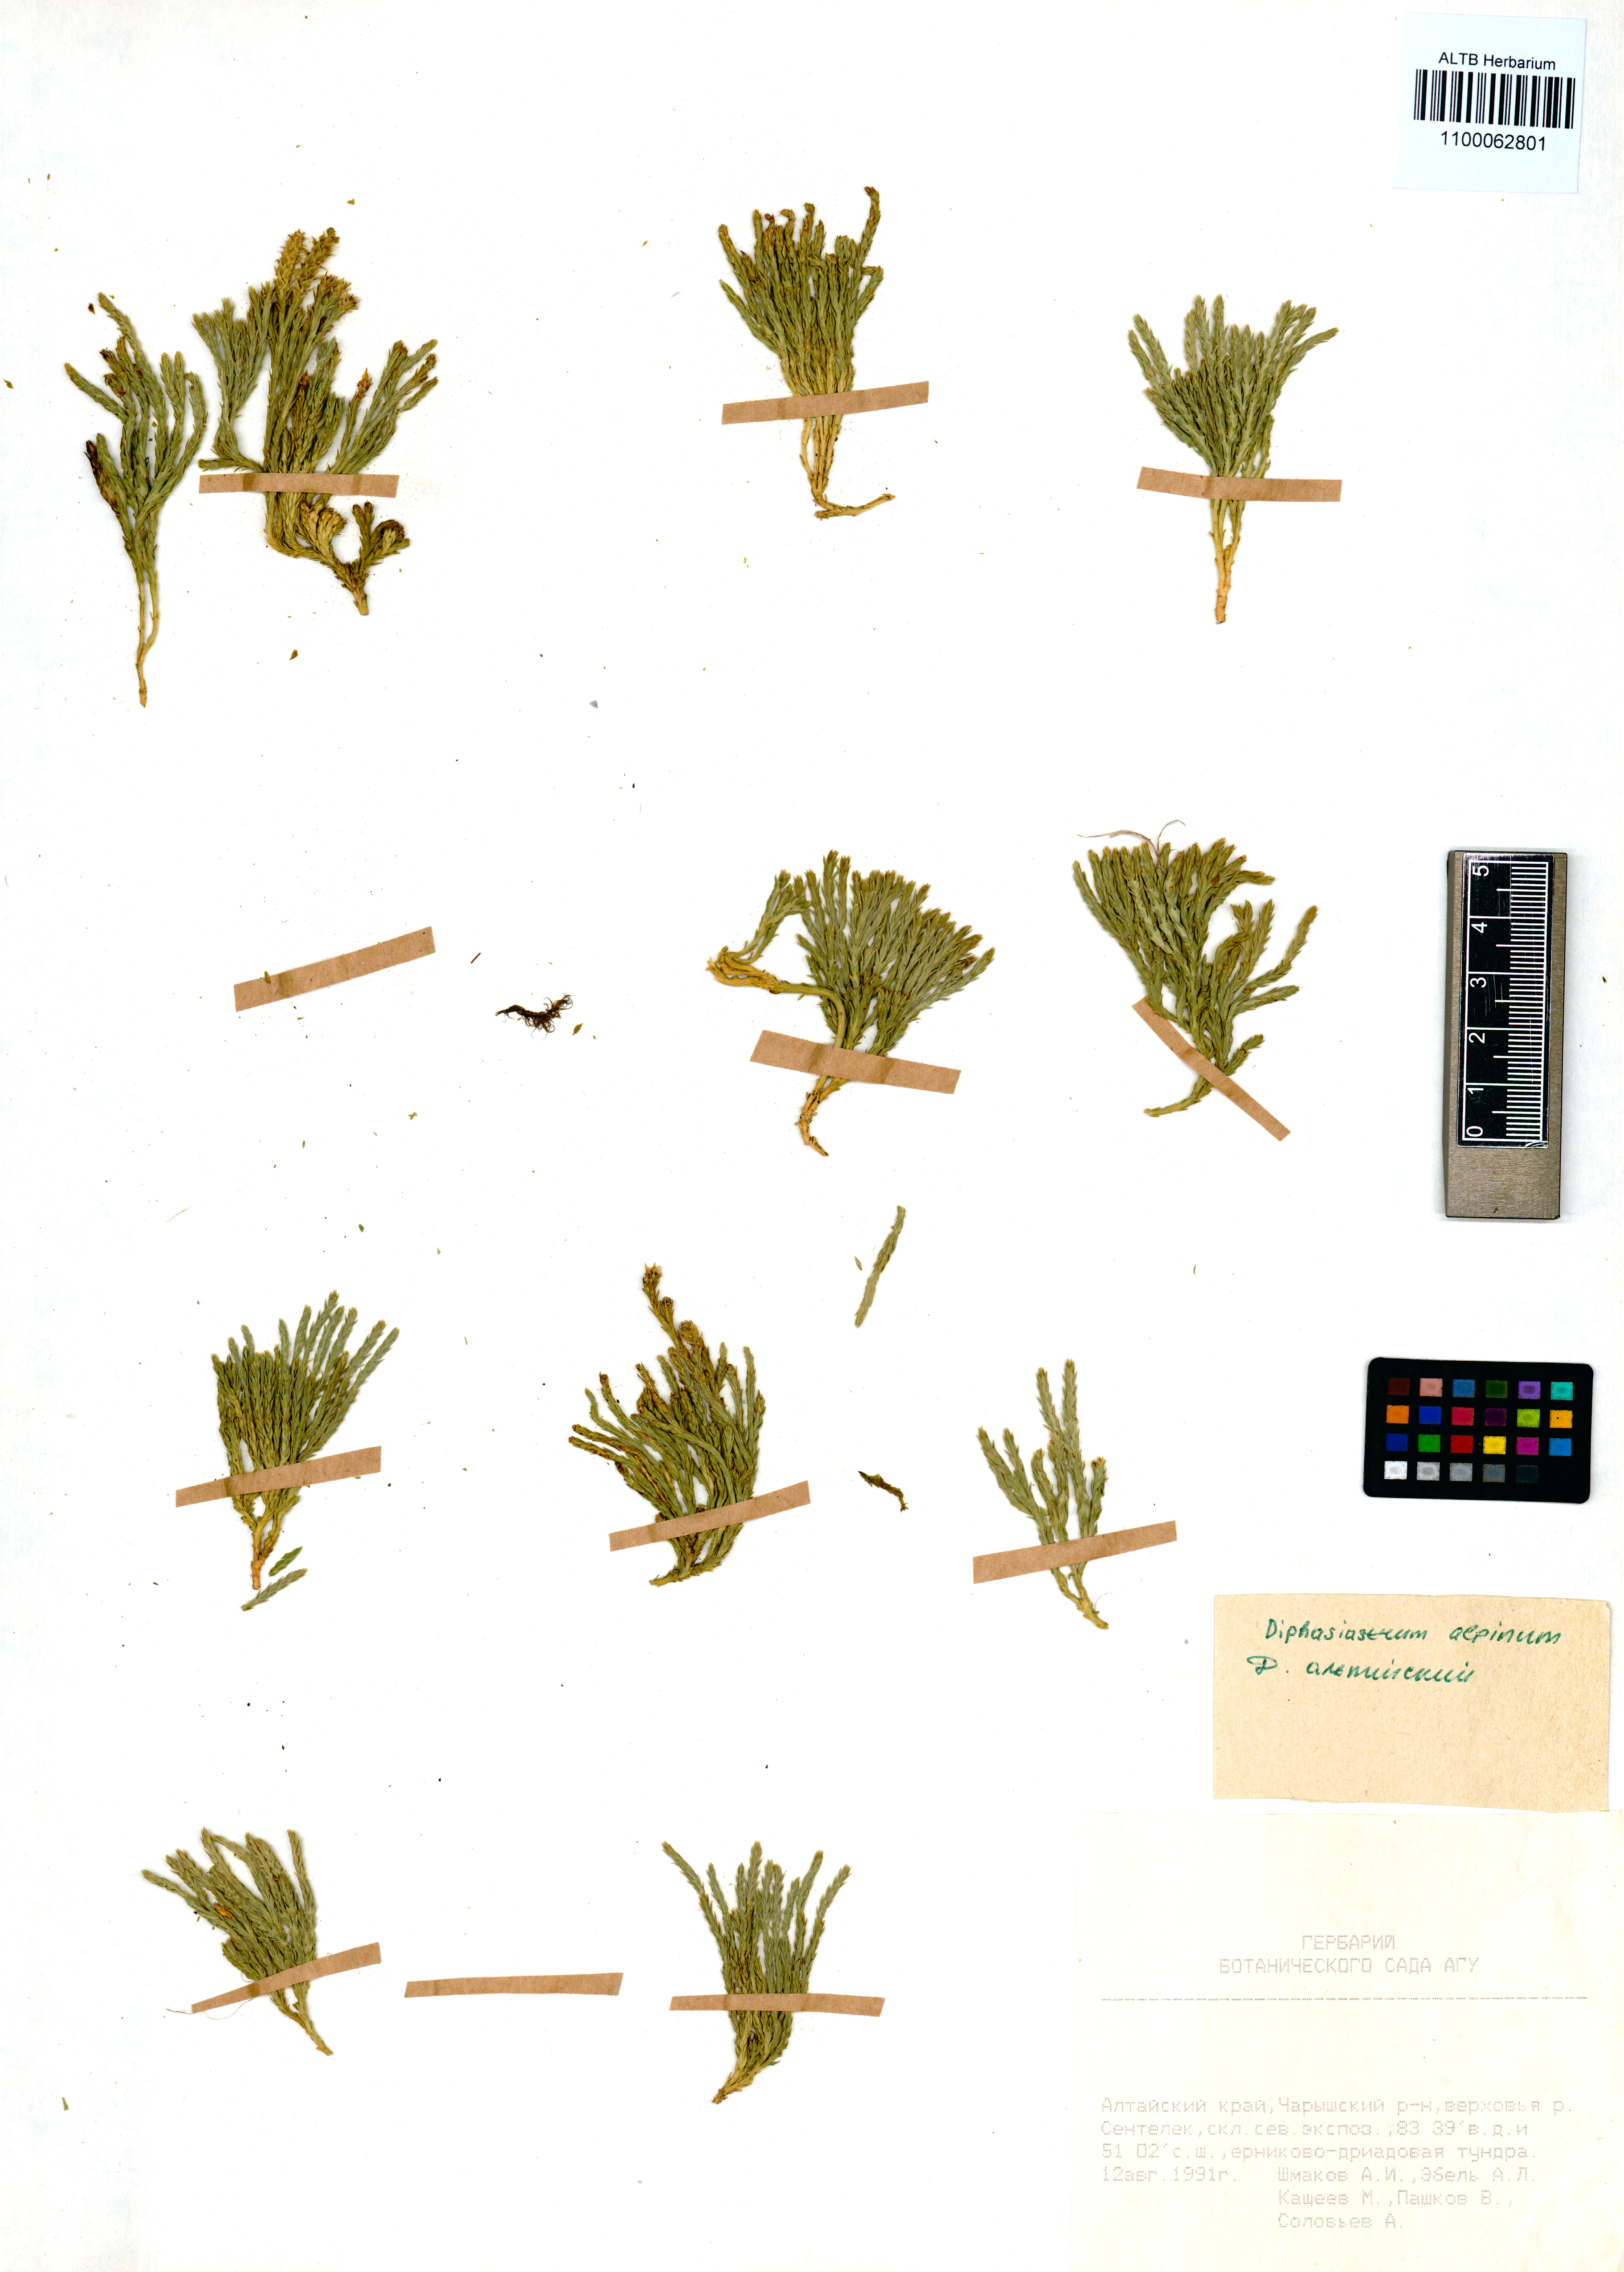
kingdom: Plantae
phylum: Tracheophyta
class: Lycopodiopsida
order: Lycopodiales
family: Lycopodiaceae
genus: Diphasiastrum
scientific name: Diphasiastrum alpinum
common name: Alpine clubmoss
